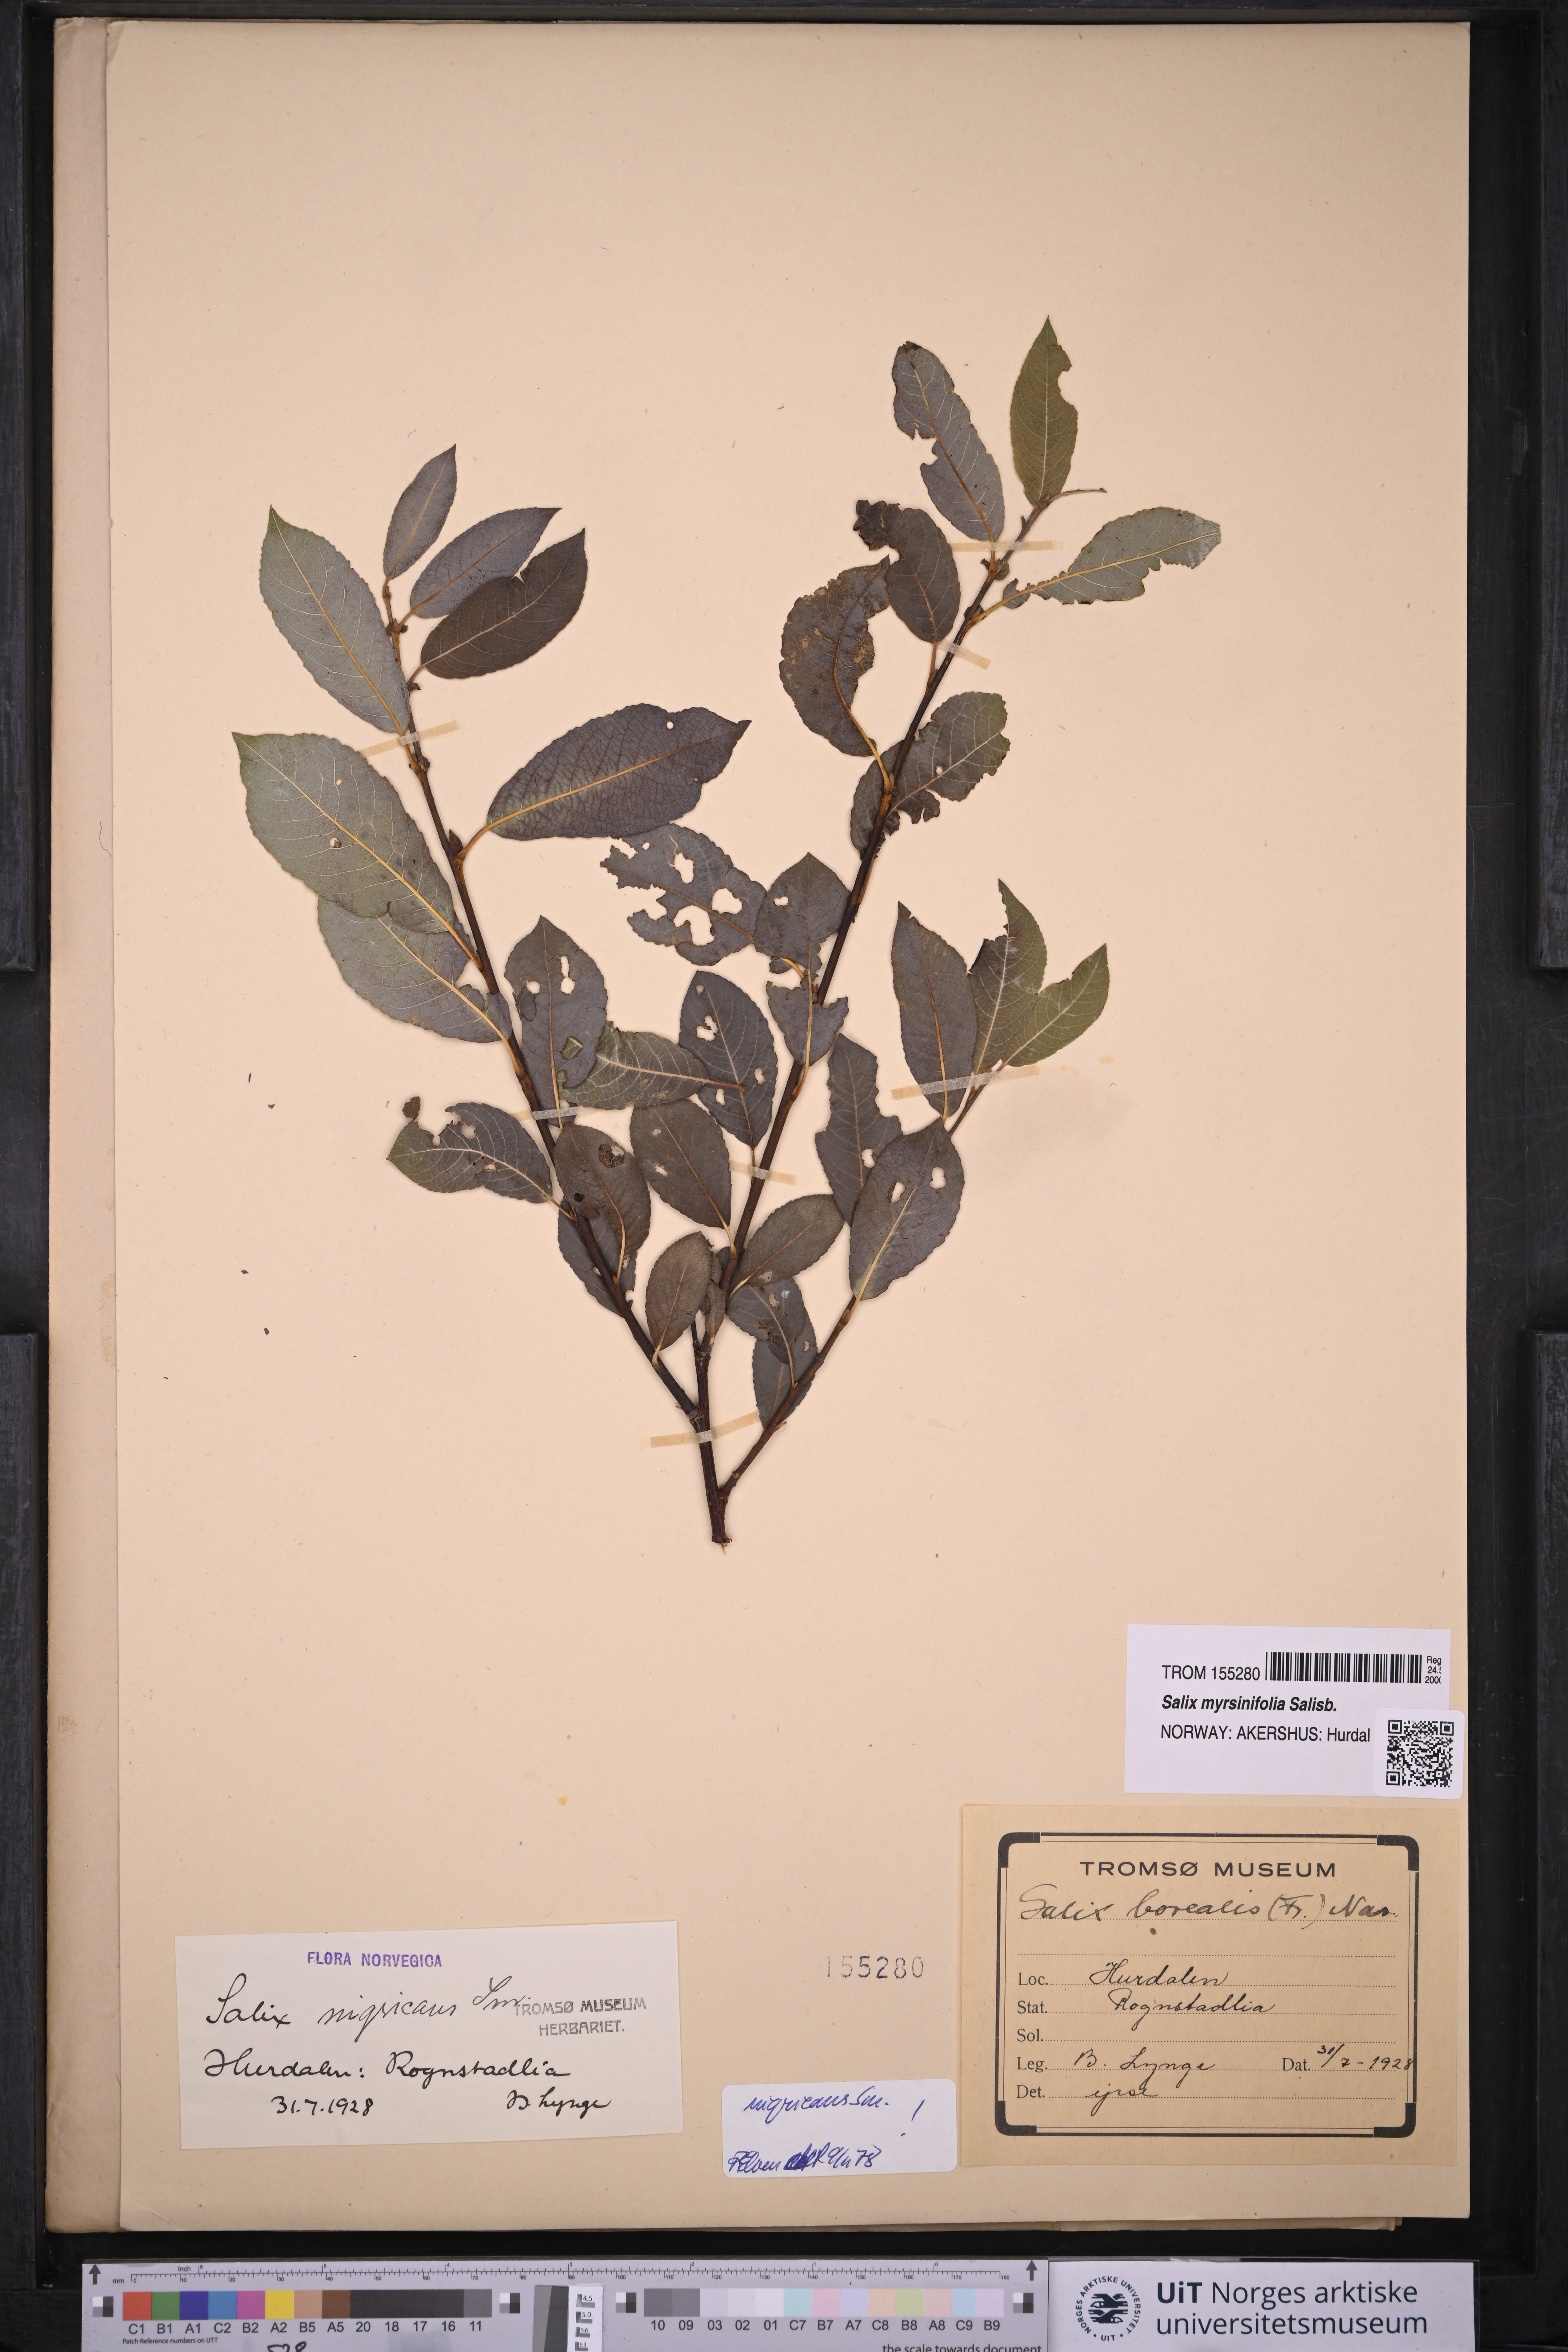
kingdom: Plantae
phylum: Tracheophyta
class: Magnoliopsida
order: Malpighiales
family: Salicaceae
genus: Salix
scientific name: Salix myrsinifolia
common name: Dark-leaved willow
